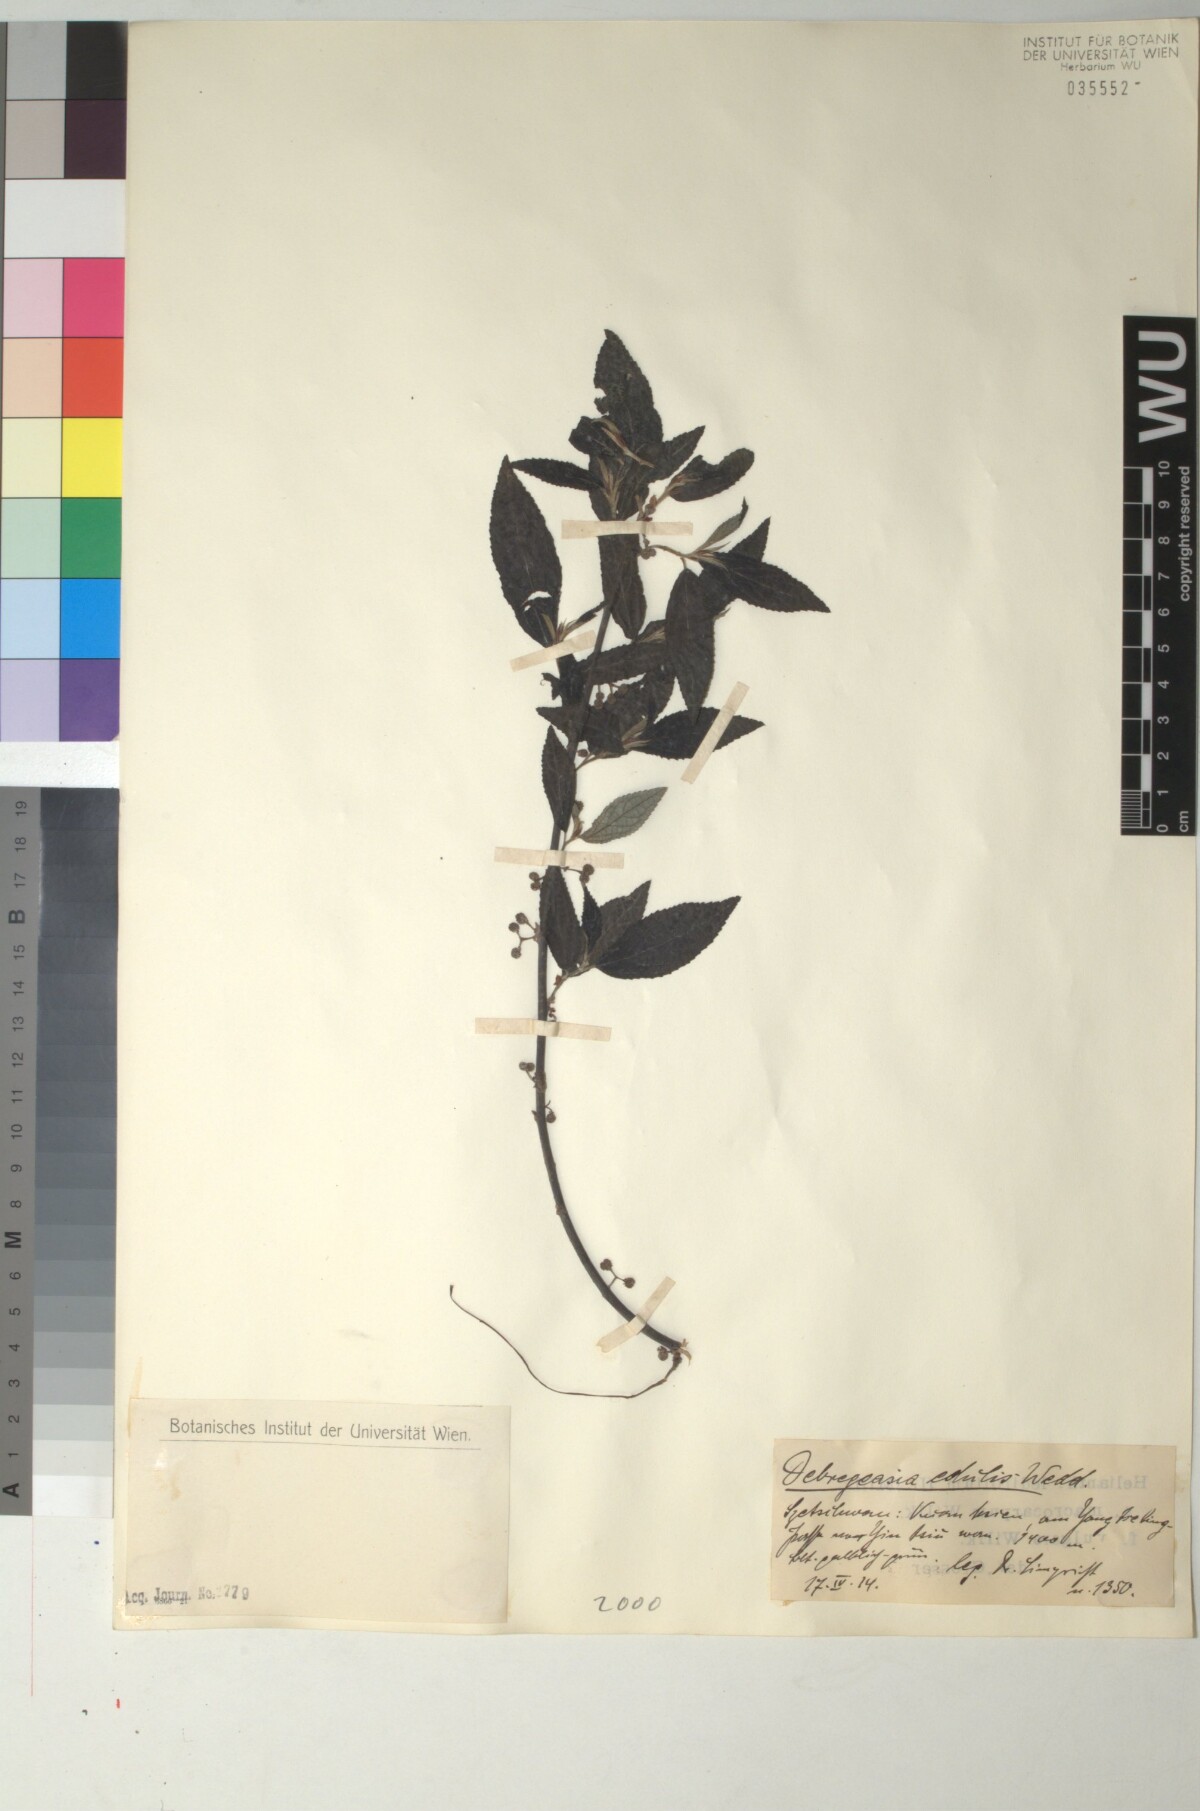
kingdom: Plantae
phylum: Tracheophyta
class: Magnoliopsida
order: Rosales
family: Urticaceae
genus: Debregeasia
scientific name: Debregeasia edulis
